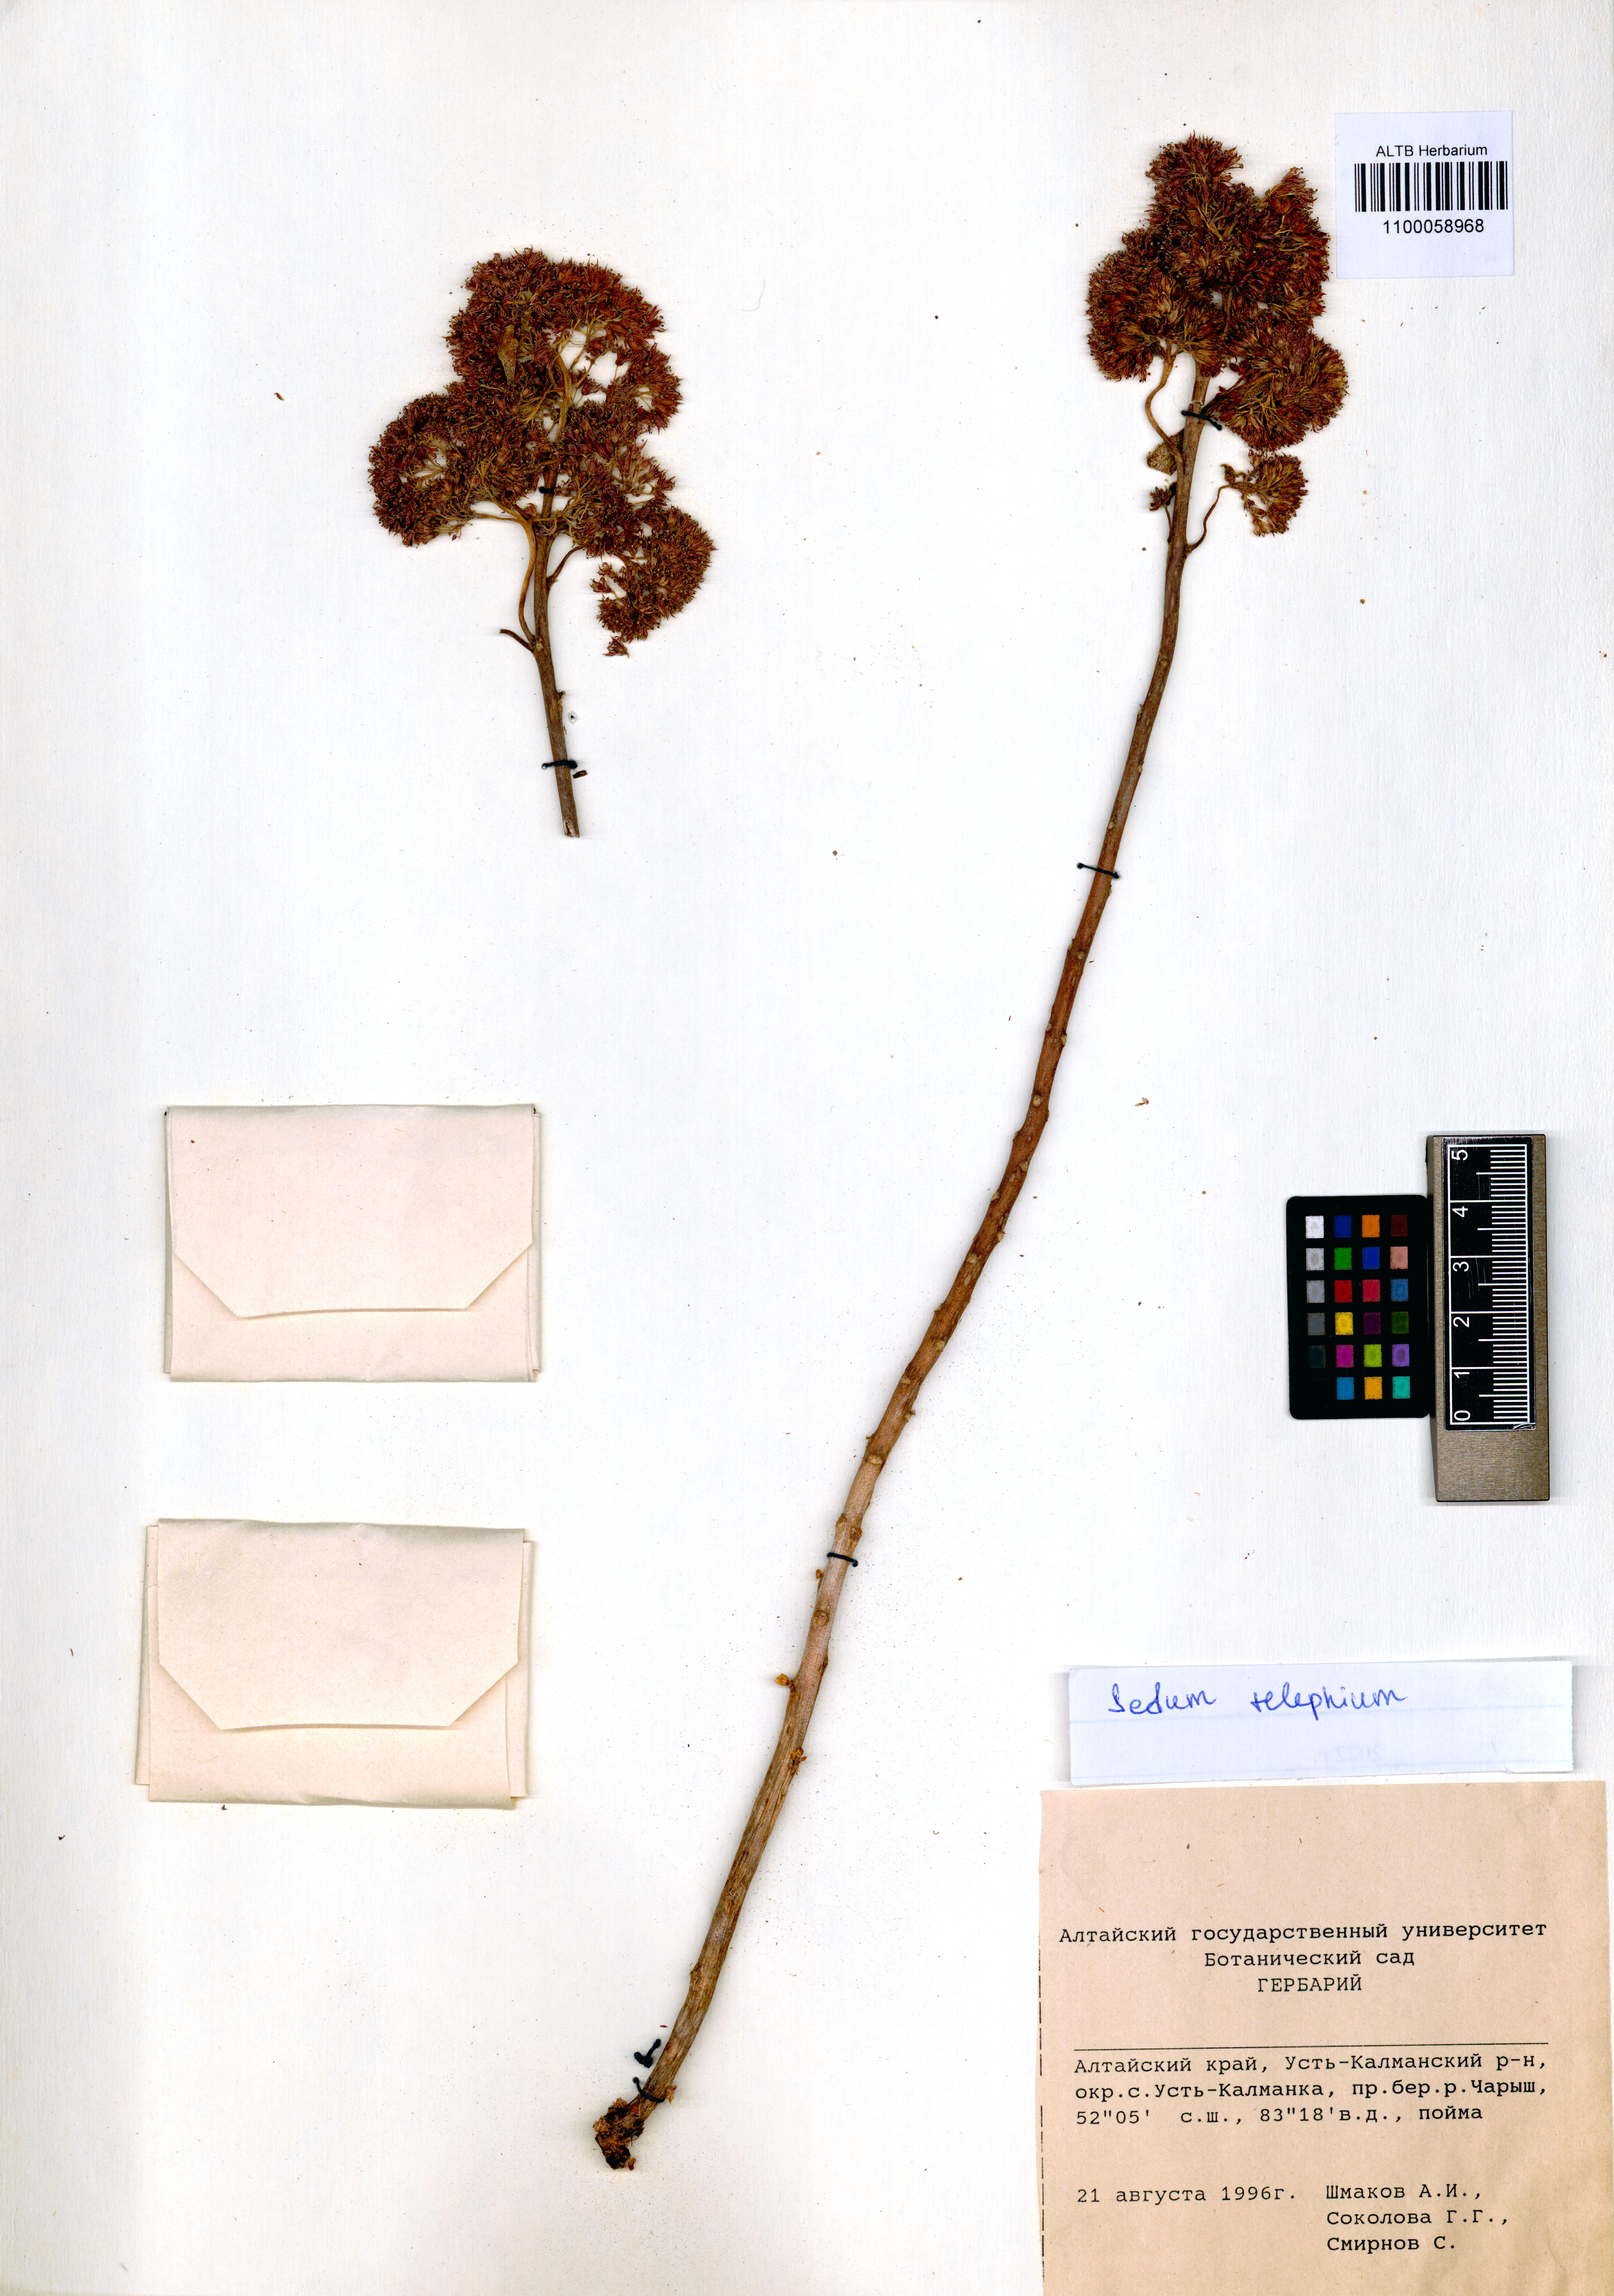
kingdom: Plantae
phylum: Tracheophyta
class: Magnoliopsida
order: Saxifragales
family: Crassulaceae
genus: Hylotelephium
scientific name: Hylotelephium telephium
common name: Live-forever
